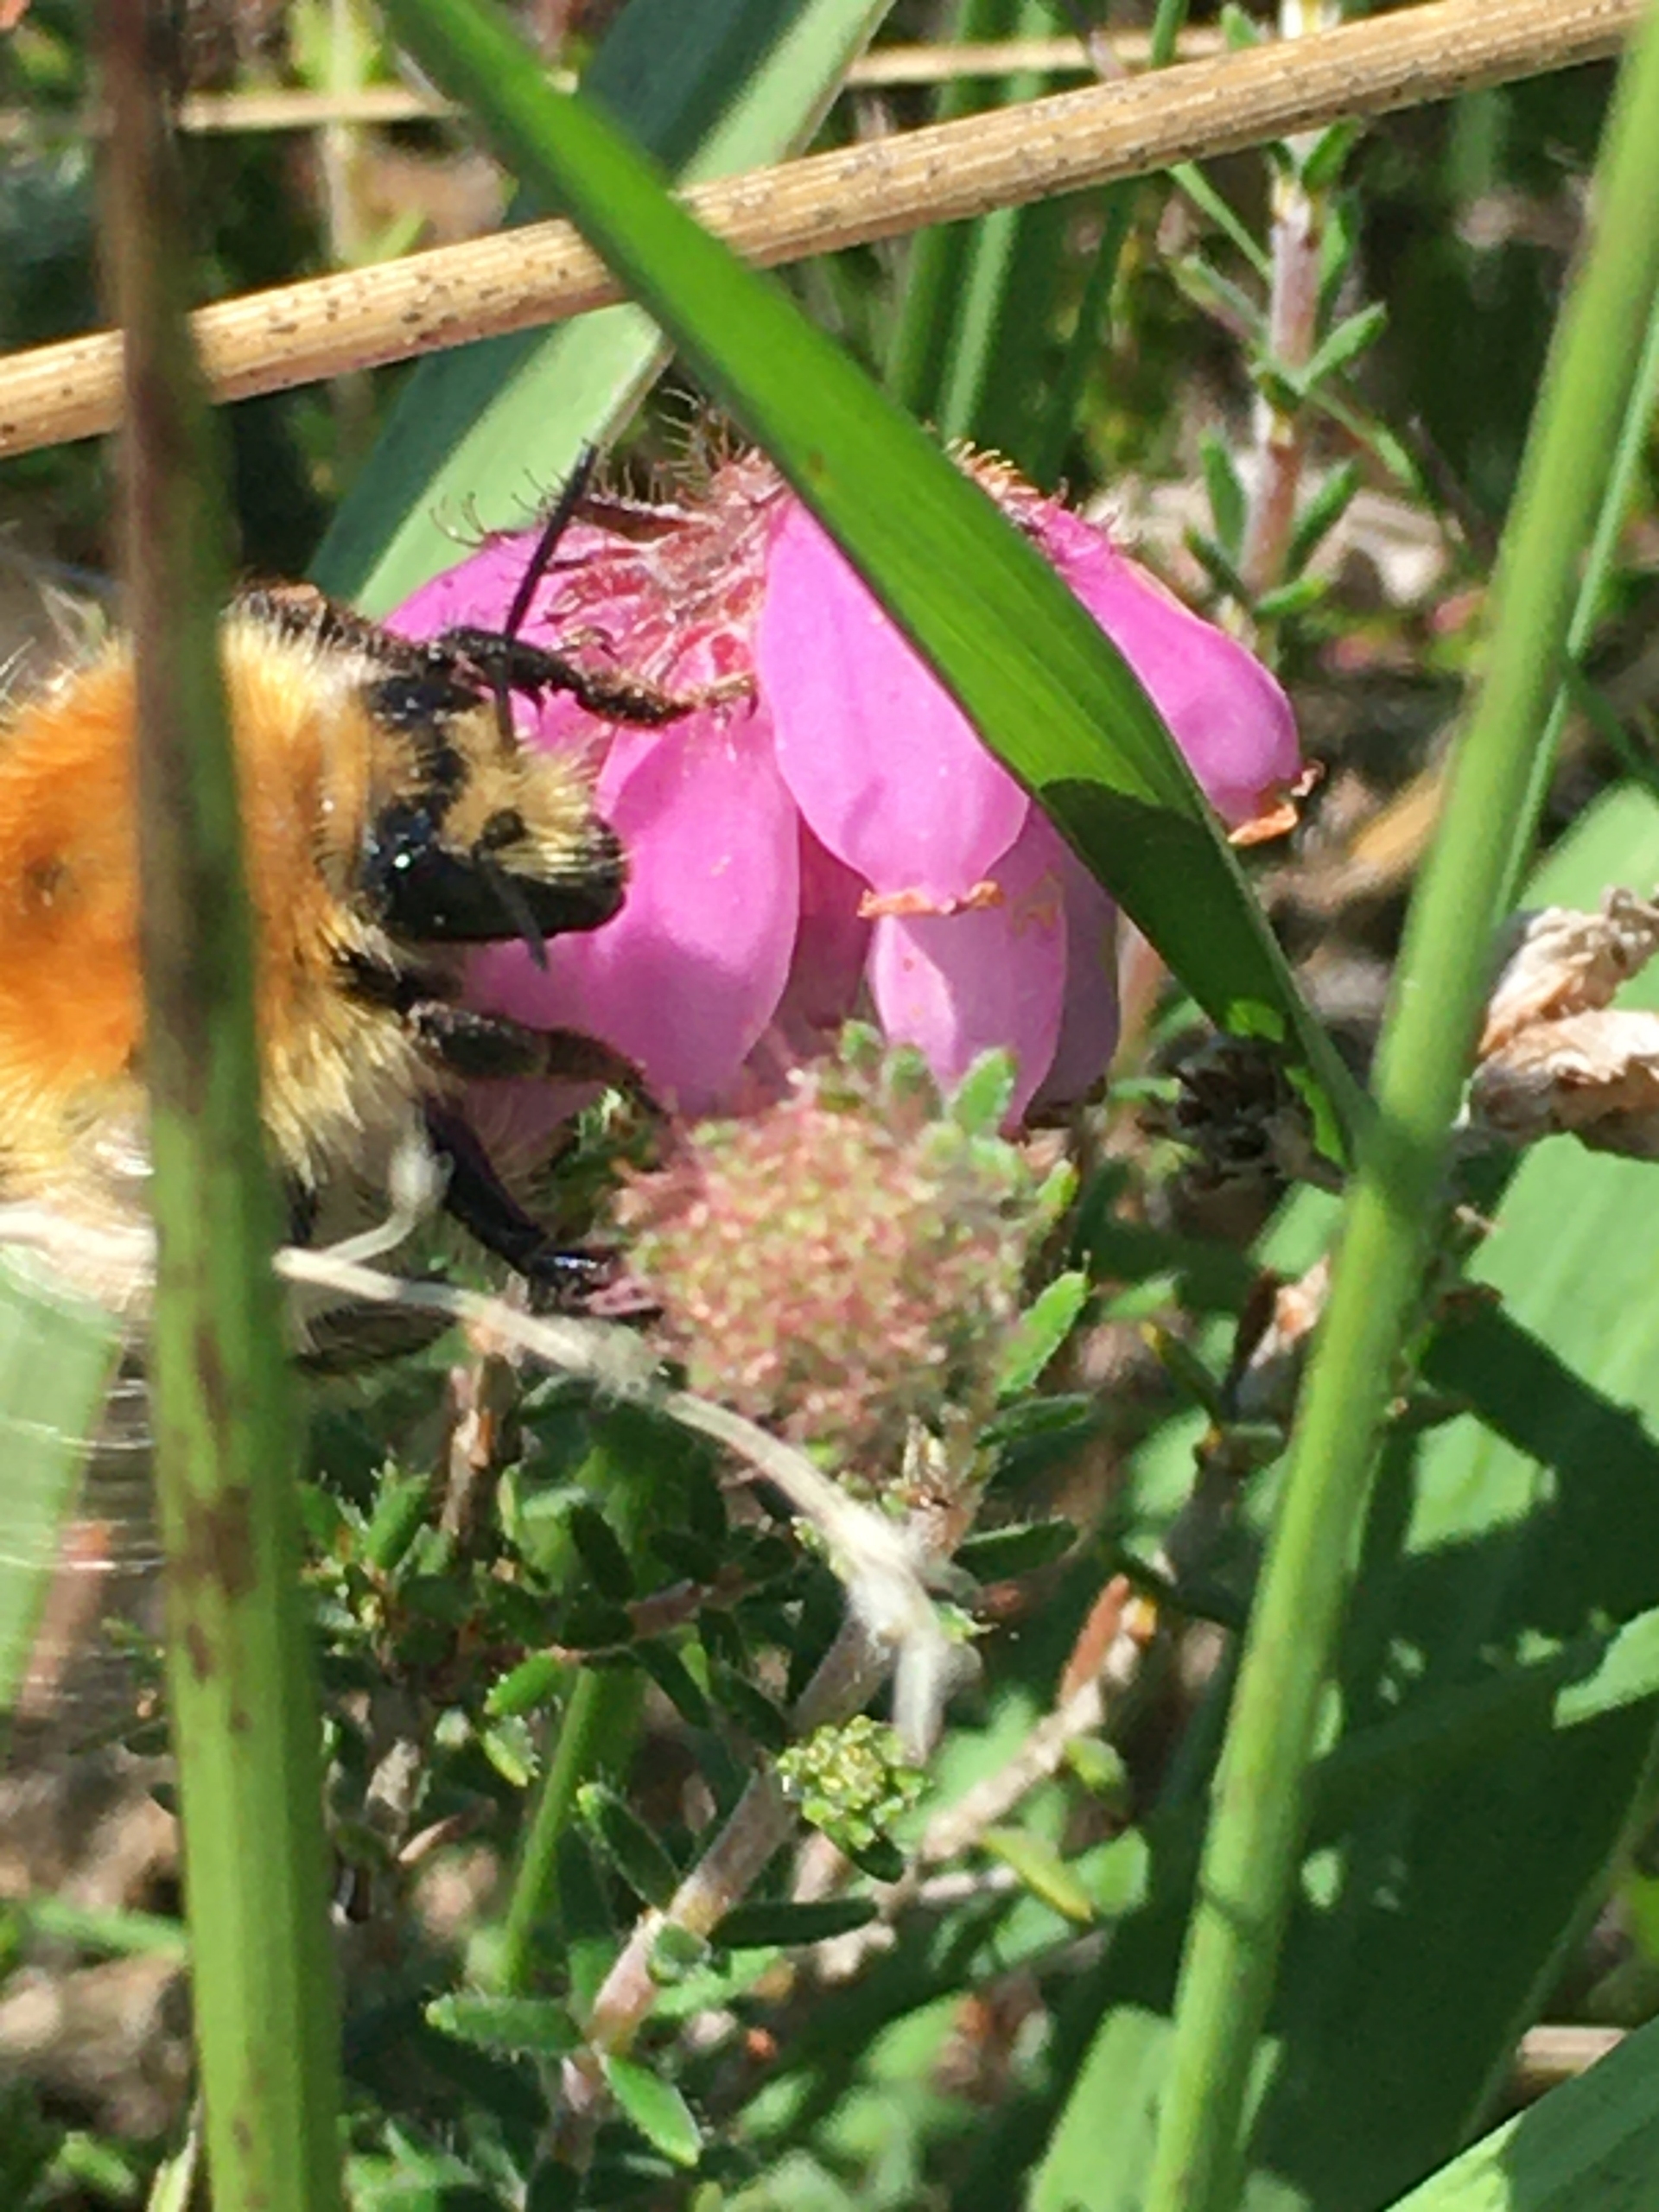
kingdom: Animalia
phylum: Arthropoda
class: Insecta
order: Hymenoptera
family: Apidae
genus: Bombus
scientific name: Bombus muscorum
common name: Moshumle
